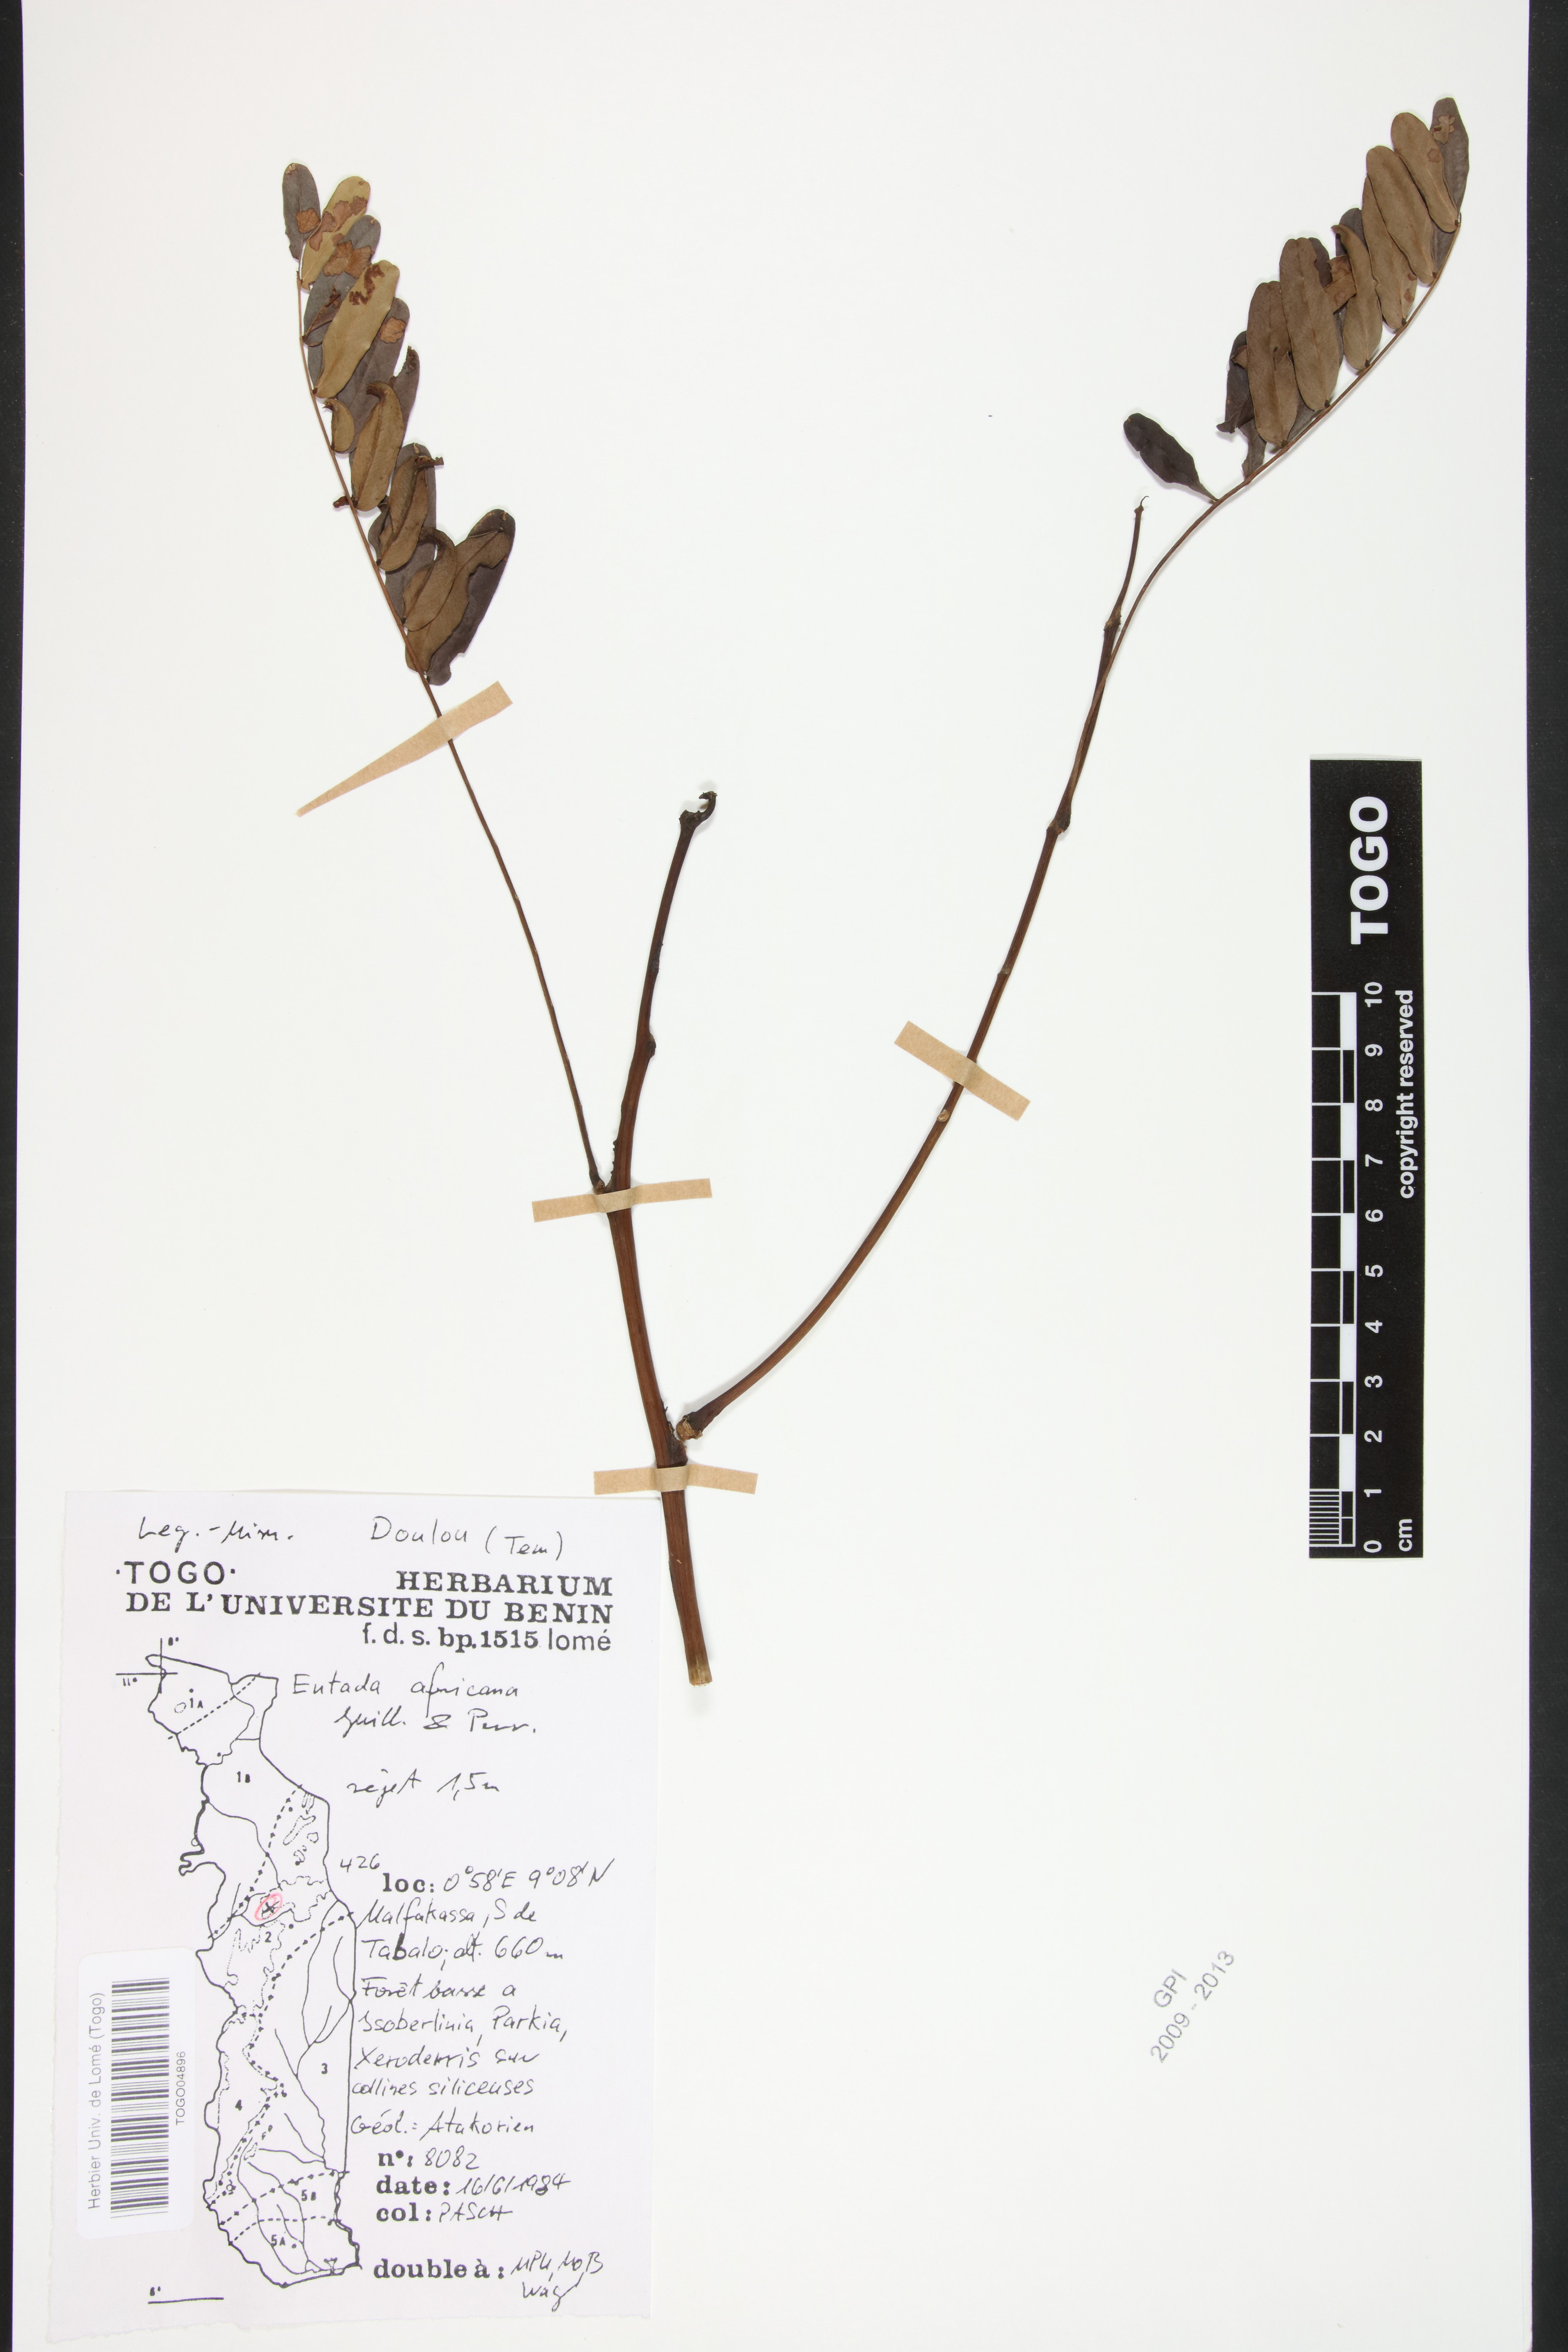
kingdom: Plantae
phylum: Tracheophyta
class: Magnoliopsida
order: Fabales
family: Fabaceae
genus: Entada
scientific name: Entada africana
